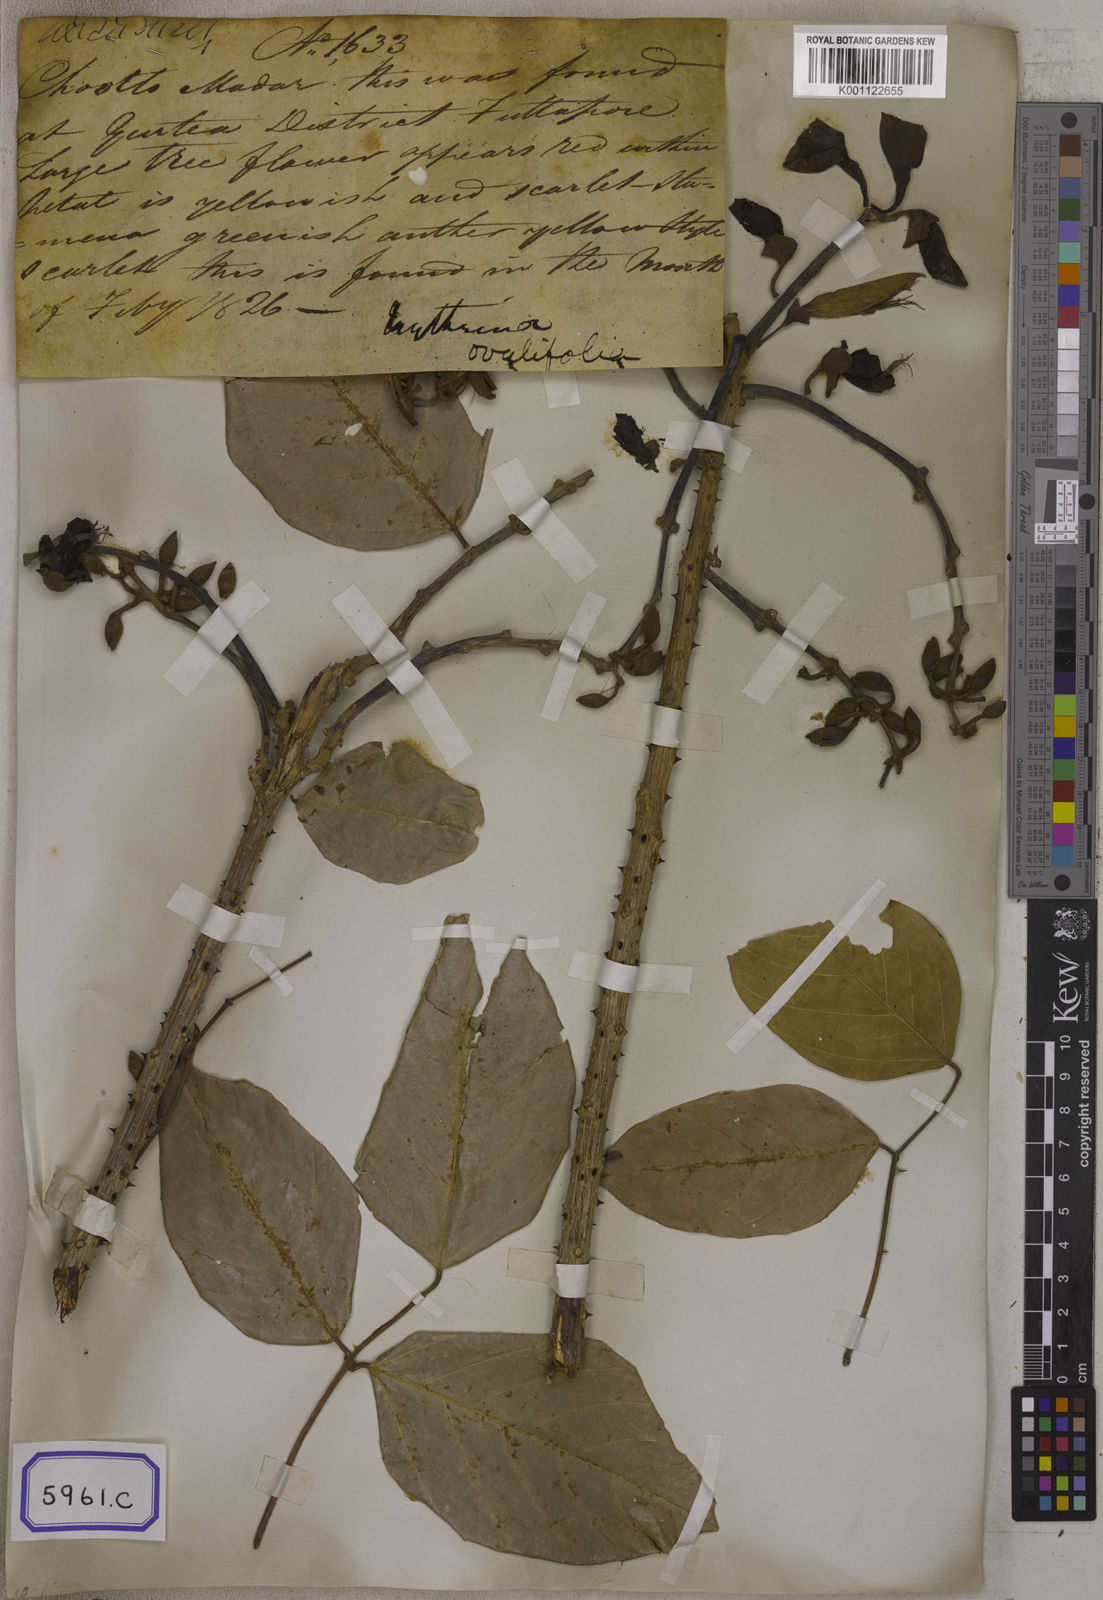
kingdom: Plantae
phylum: Tracheophyta
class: Magnoliopsida
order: Fabales
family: Fabaceae
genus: Erythrina
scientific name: Erythrina fusca
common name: Coral-bean
